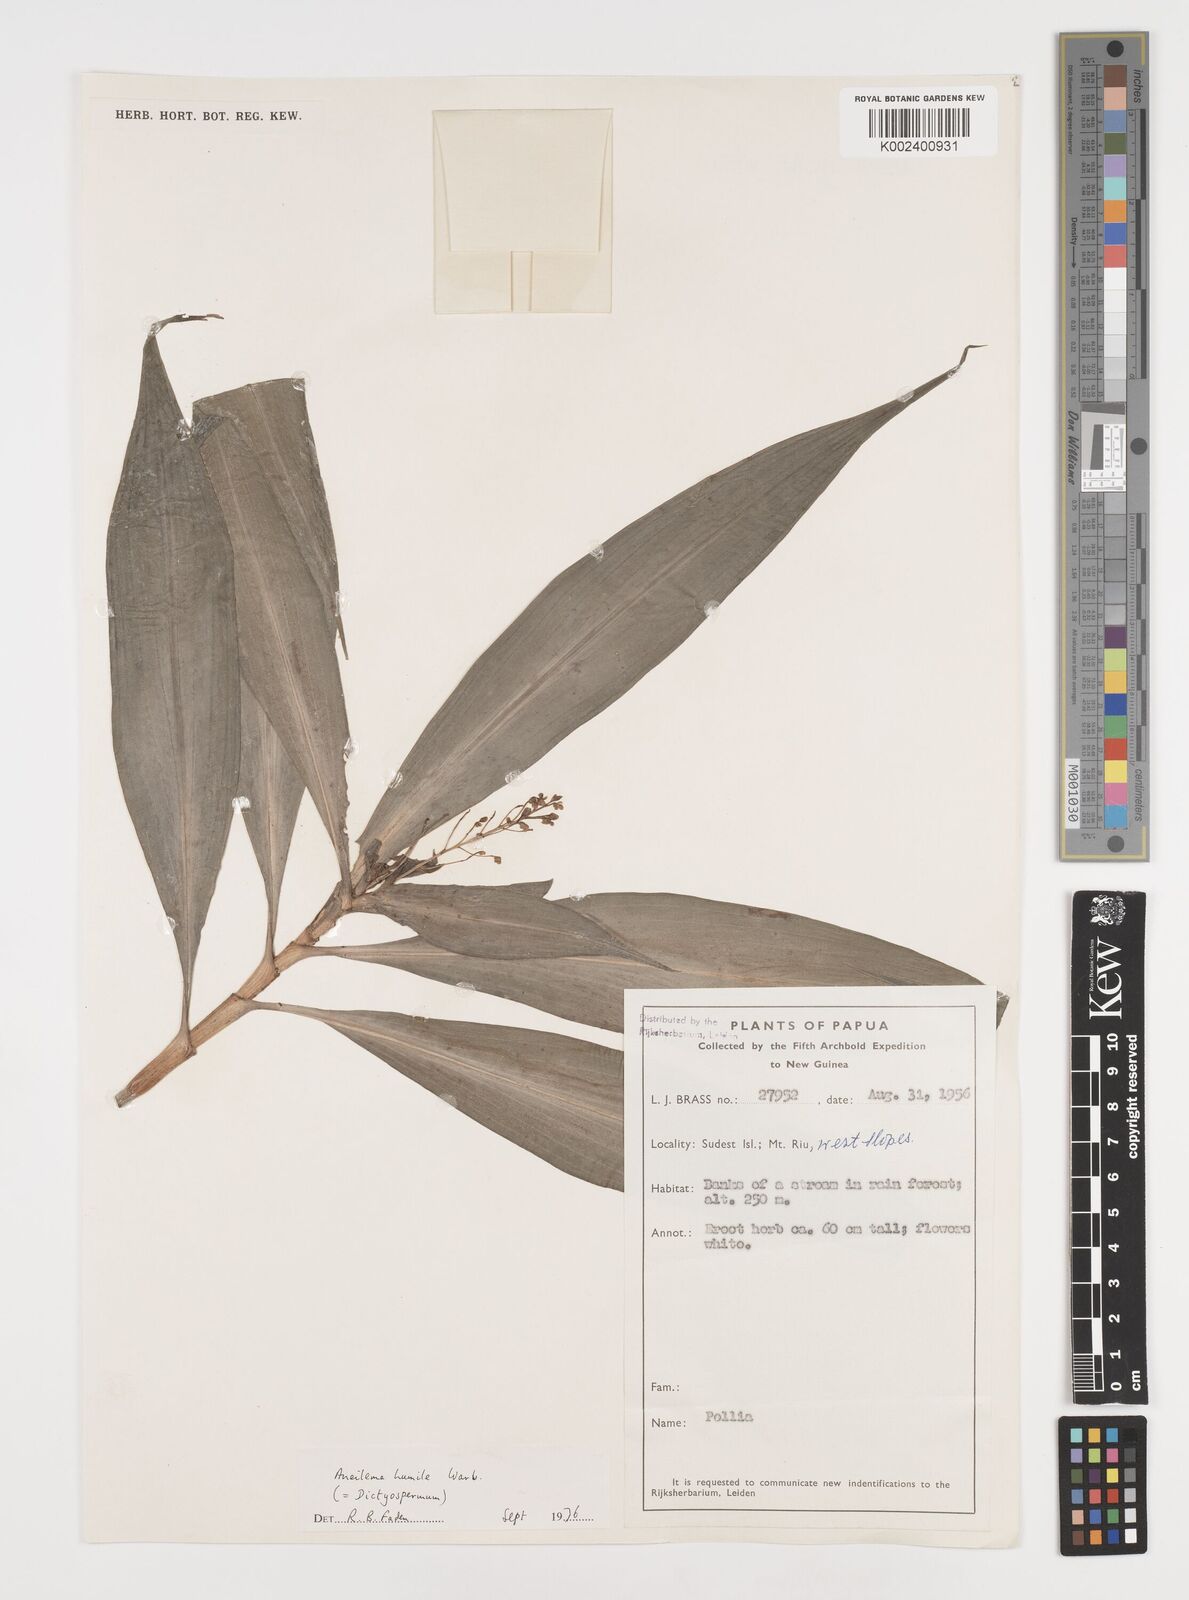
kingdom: Plantae
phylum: Tracheophyta
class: Liliopsida
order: Commelinales
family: Commelinaceae
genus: Dictyospermum
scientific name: Dictyospermum humile
